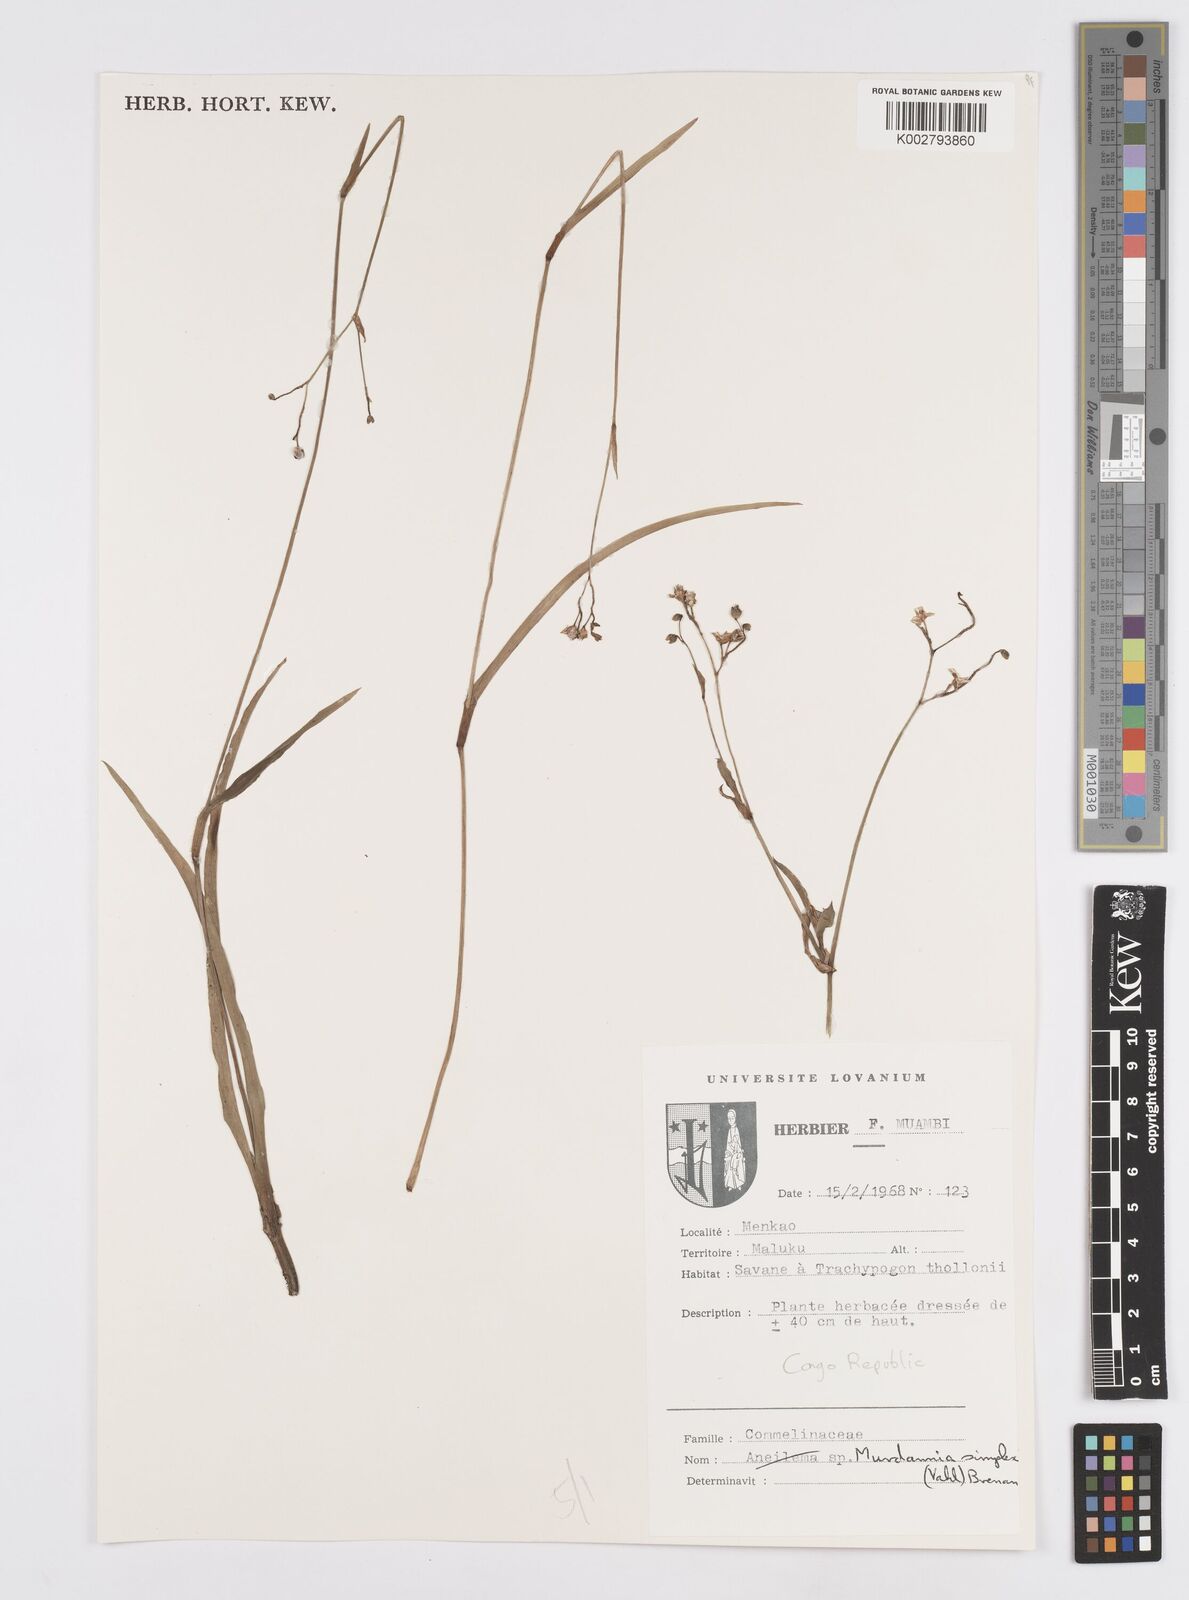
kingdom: Plantae
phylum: Tracheophyta
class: Liliopsida
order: Commelinales
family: Commelinaceae
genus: Murdannia
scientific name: Murdannia simplex
